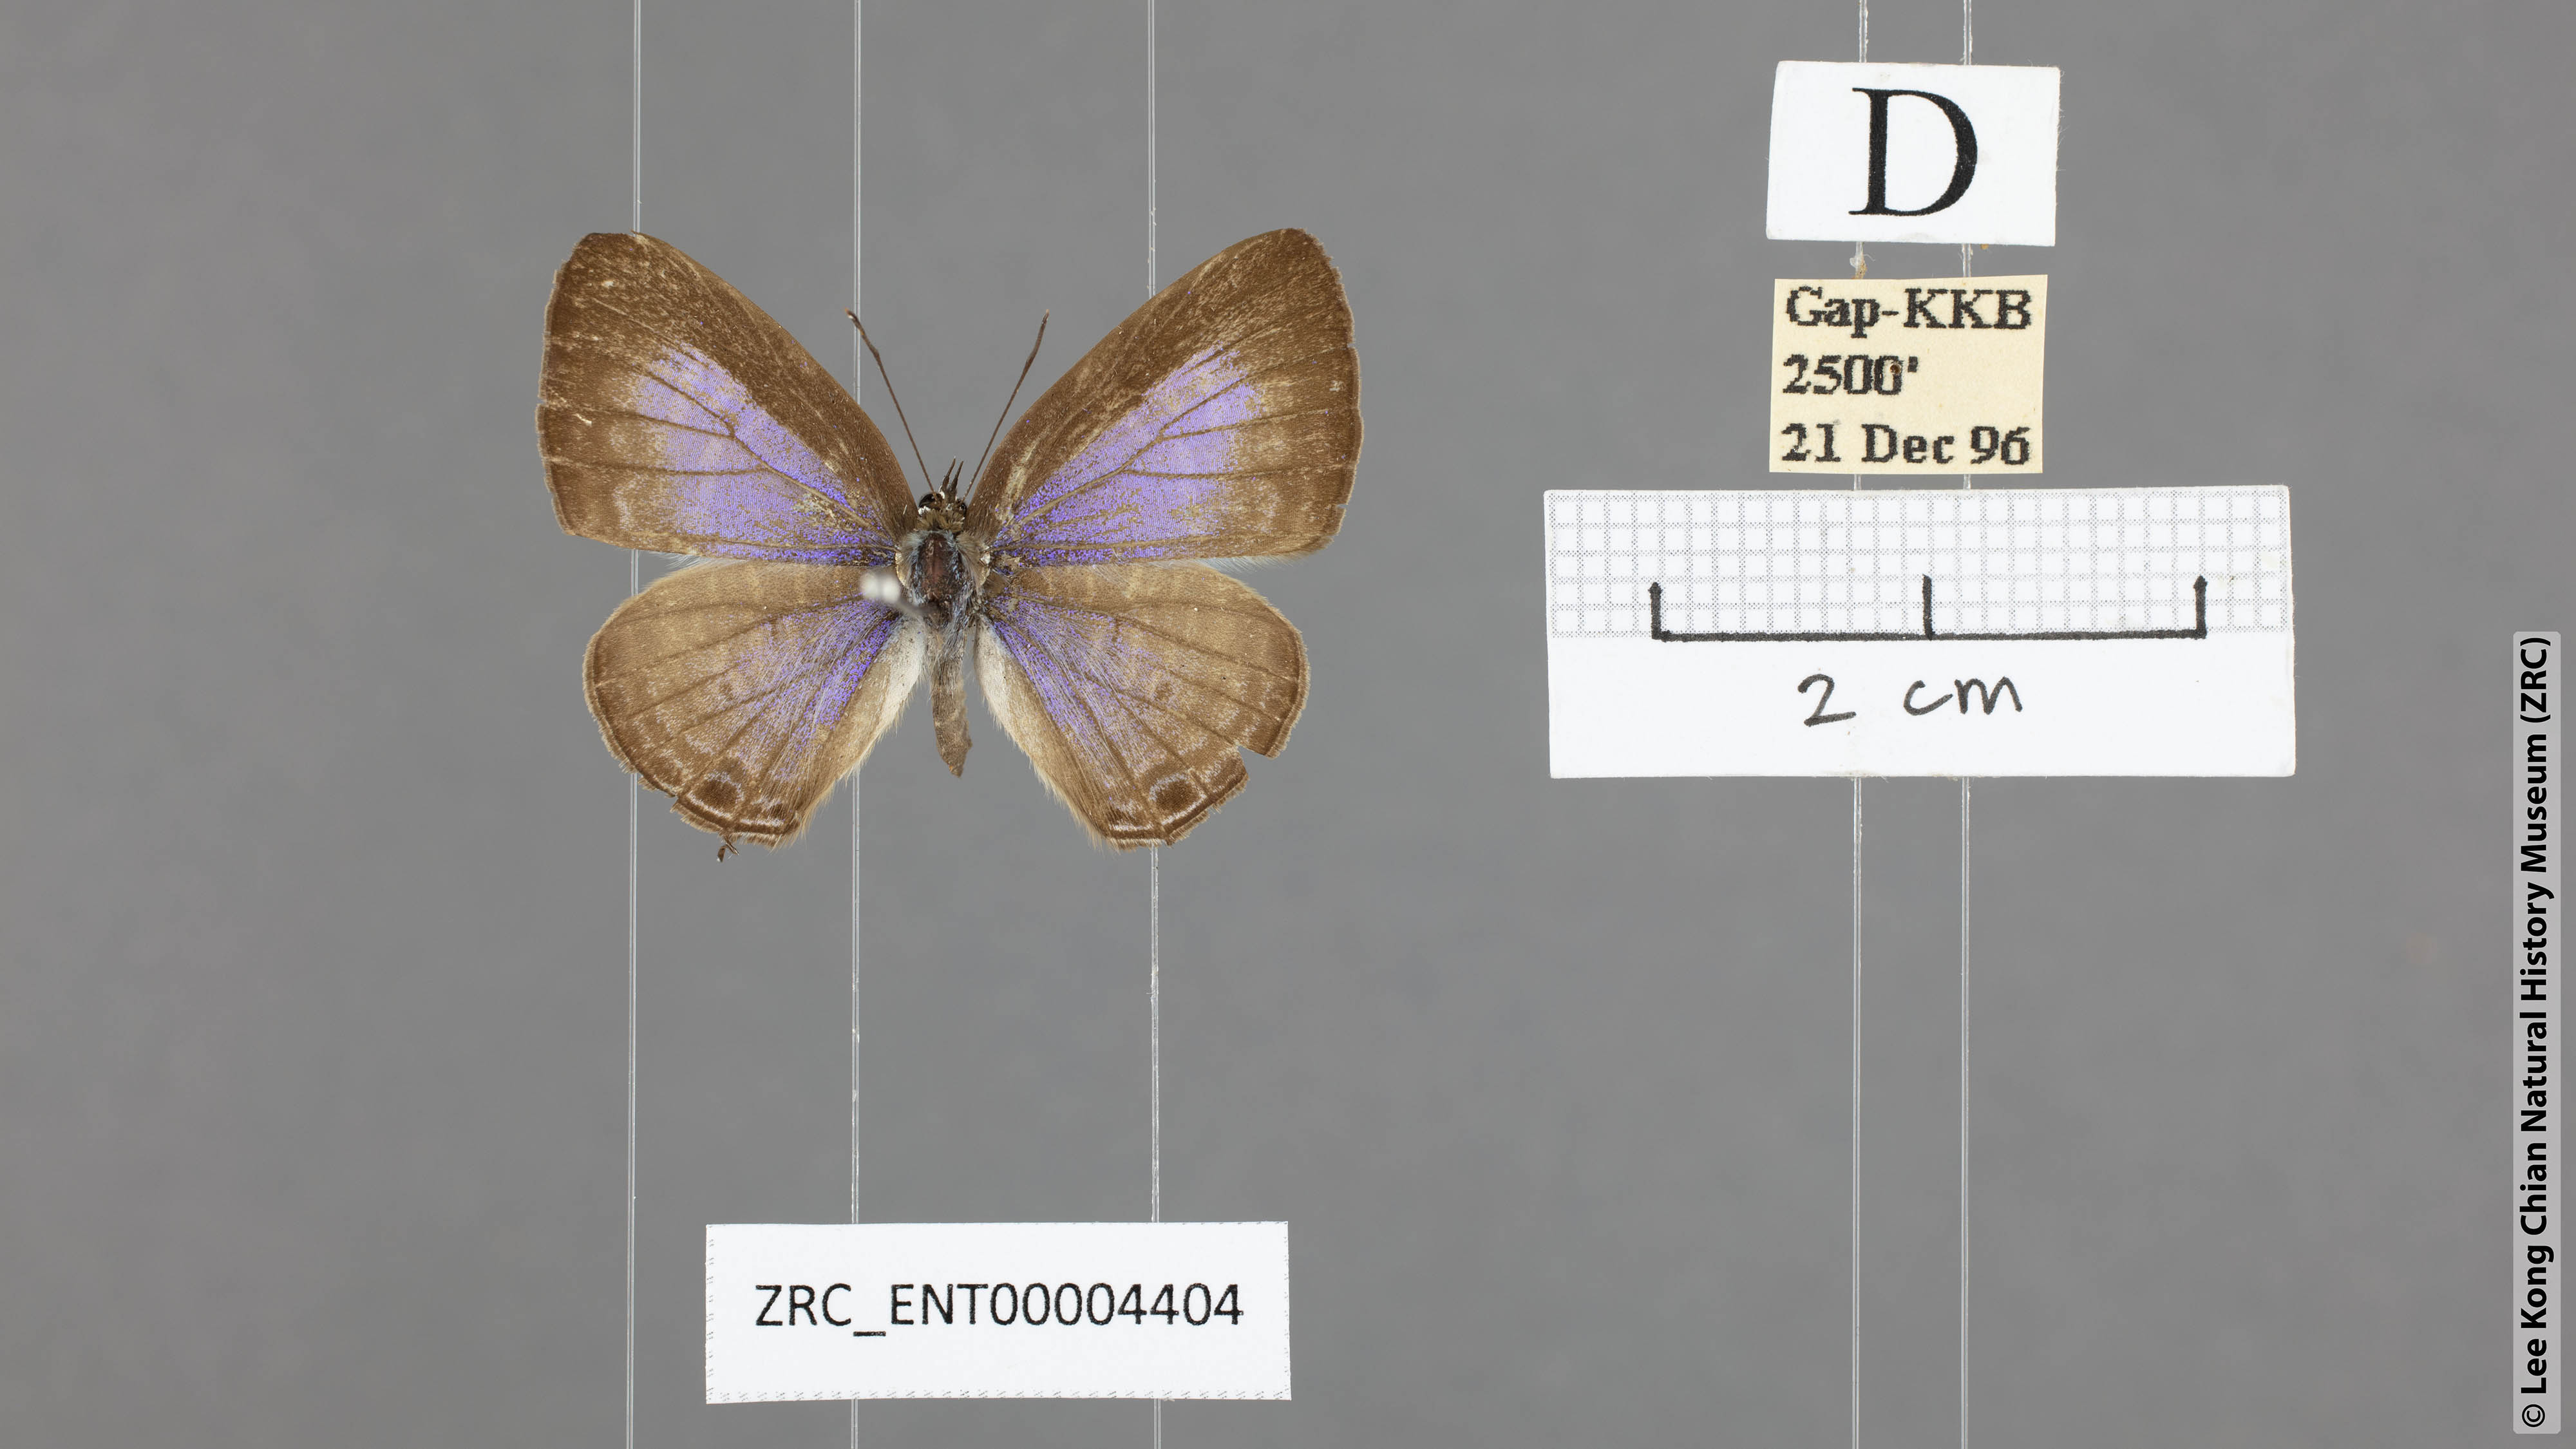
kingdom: Animalia
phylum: Arthropoda
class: Insecta
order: Lepidoptera
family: Lycaenidae
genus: Nacaduba
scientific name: Nacaduba pactolus
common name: Large fourline blue
